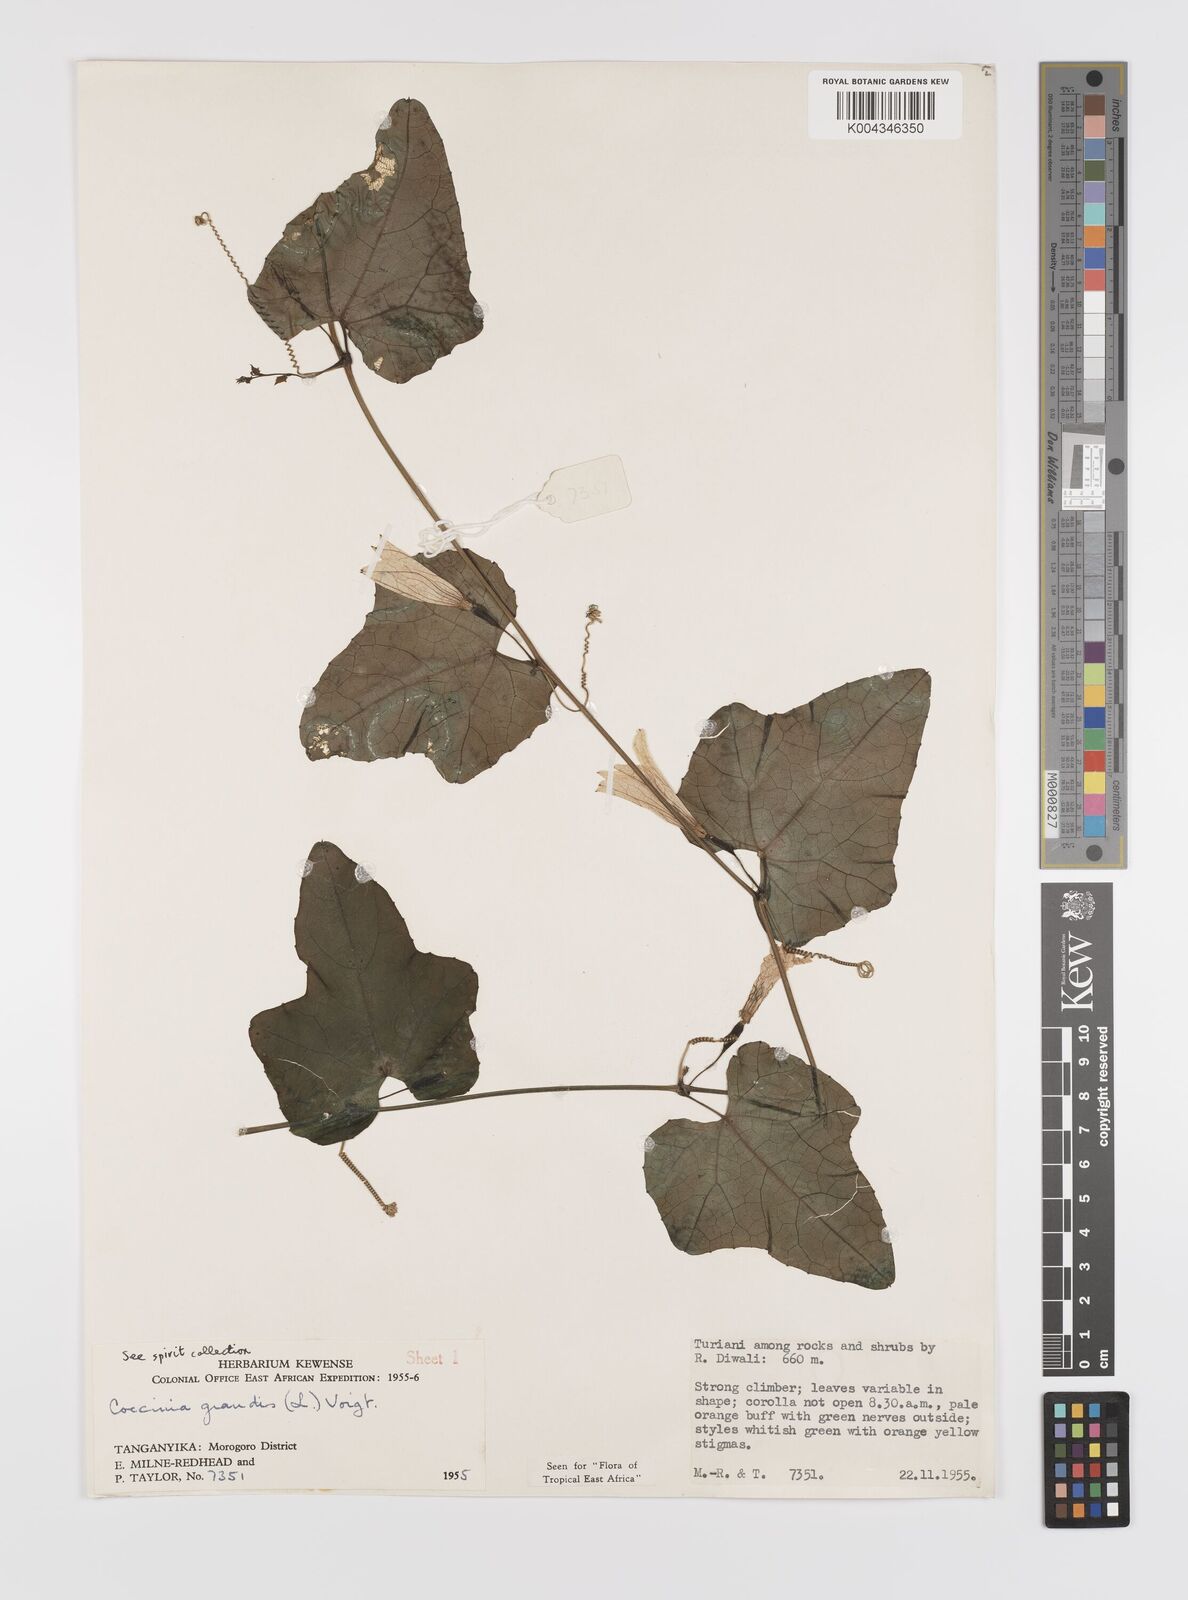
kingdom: Plantae
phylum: Tracheophyta
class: Magnoliopsida
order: Cucurbitales
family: Cucurbitaceae
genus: Coccinia
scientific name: Coccinia grandis
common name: Ivy gourd
